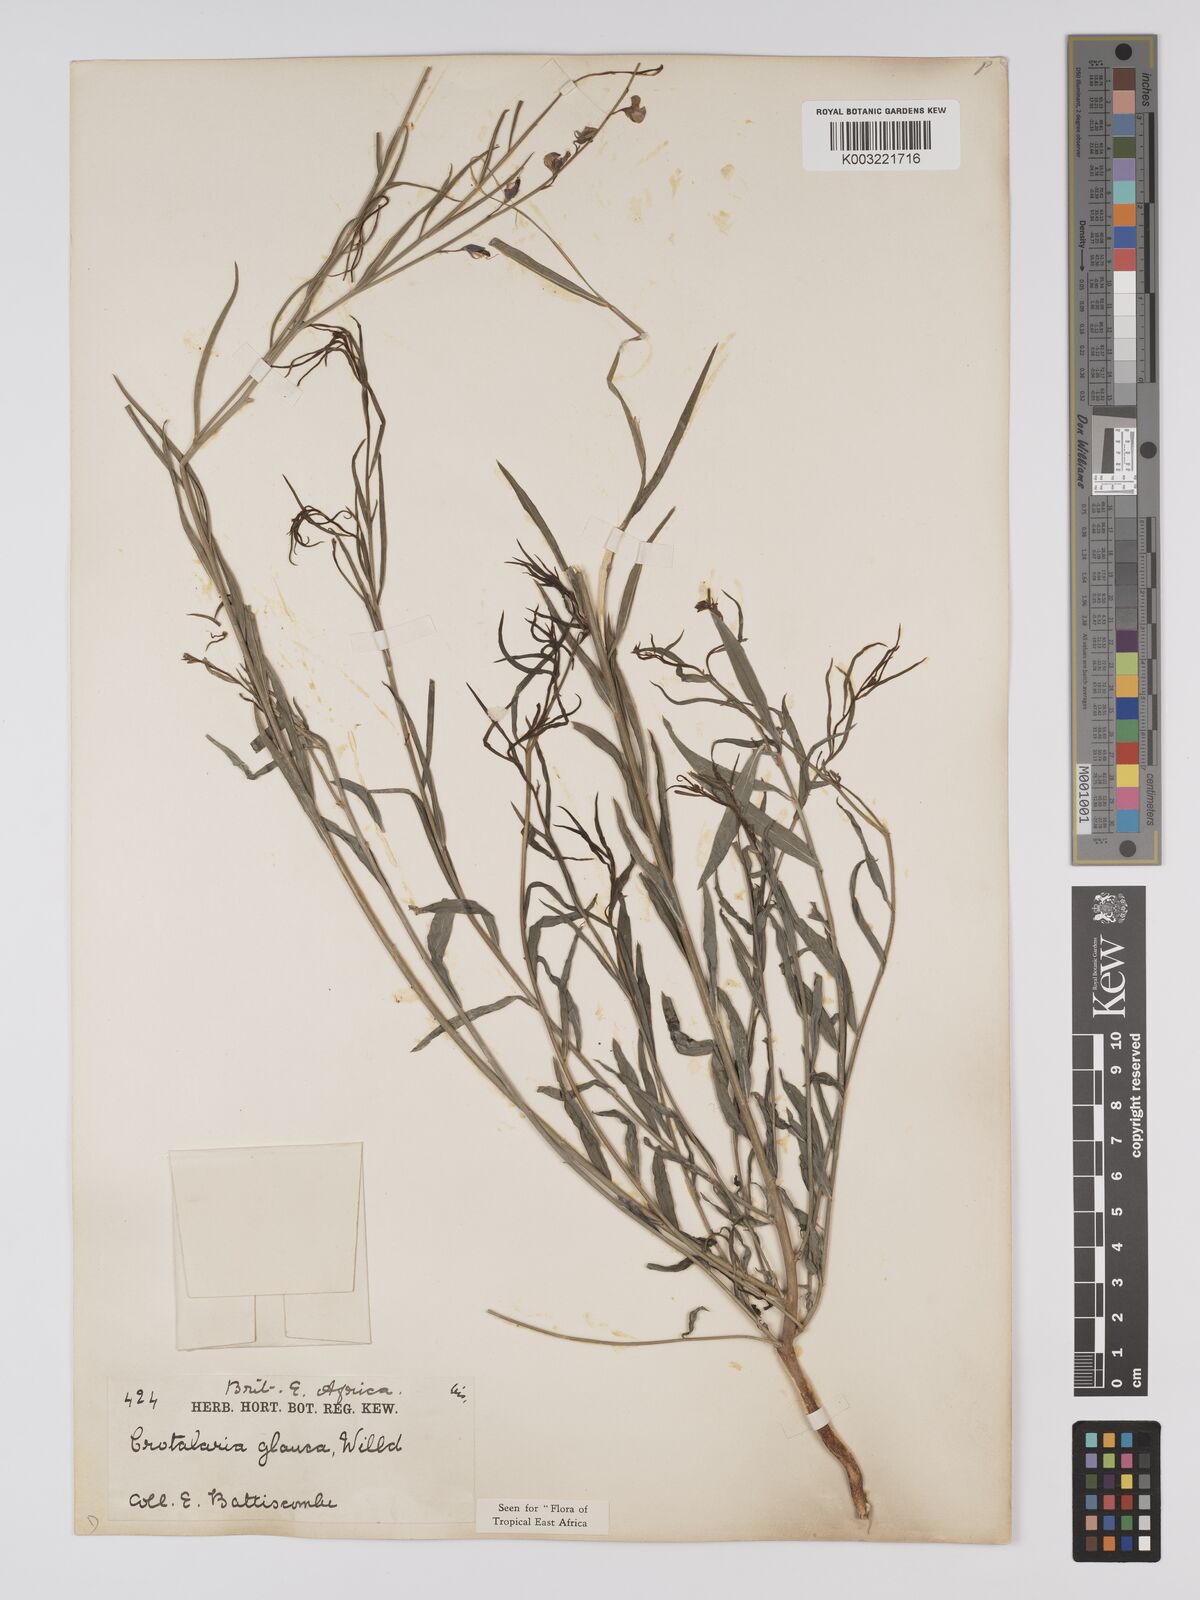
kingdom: Plantae
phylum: Tracheophyta
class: Magnoliopsida
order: Fabales
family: Fabaceae
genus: Crotalaria
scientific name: Crotalaria glauca
